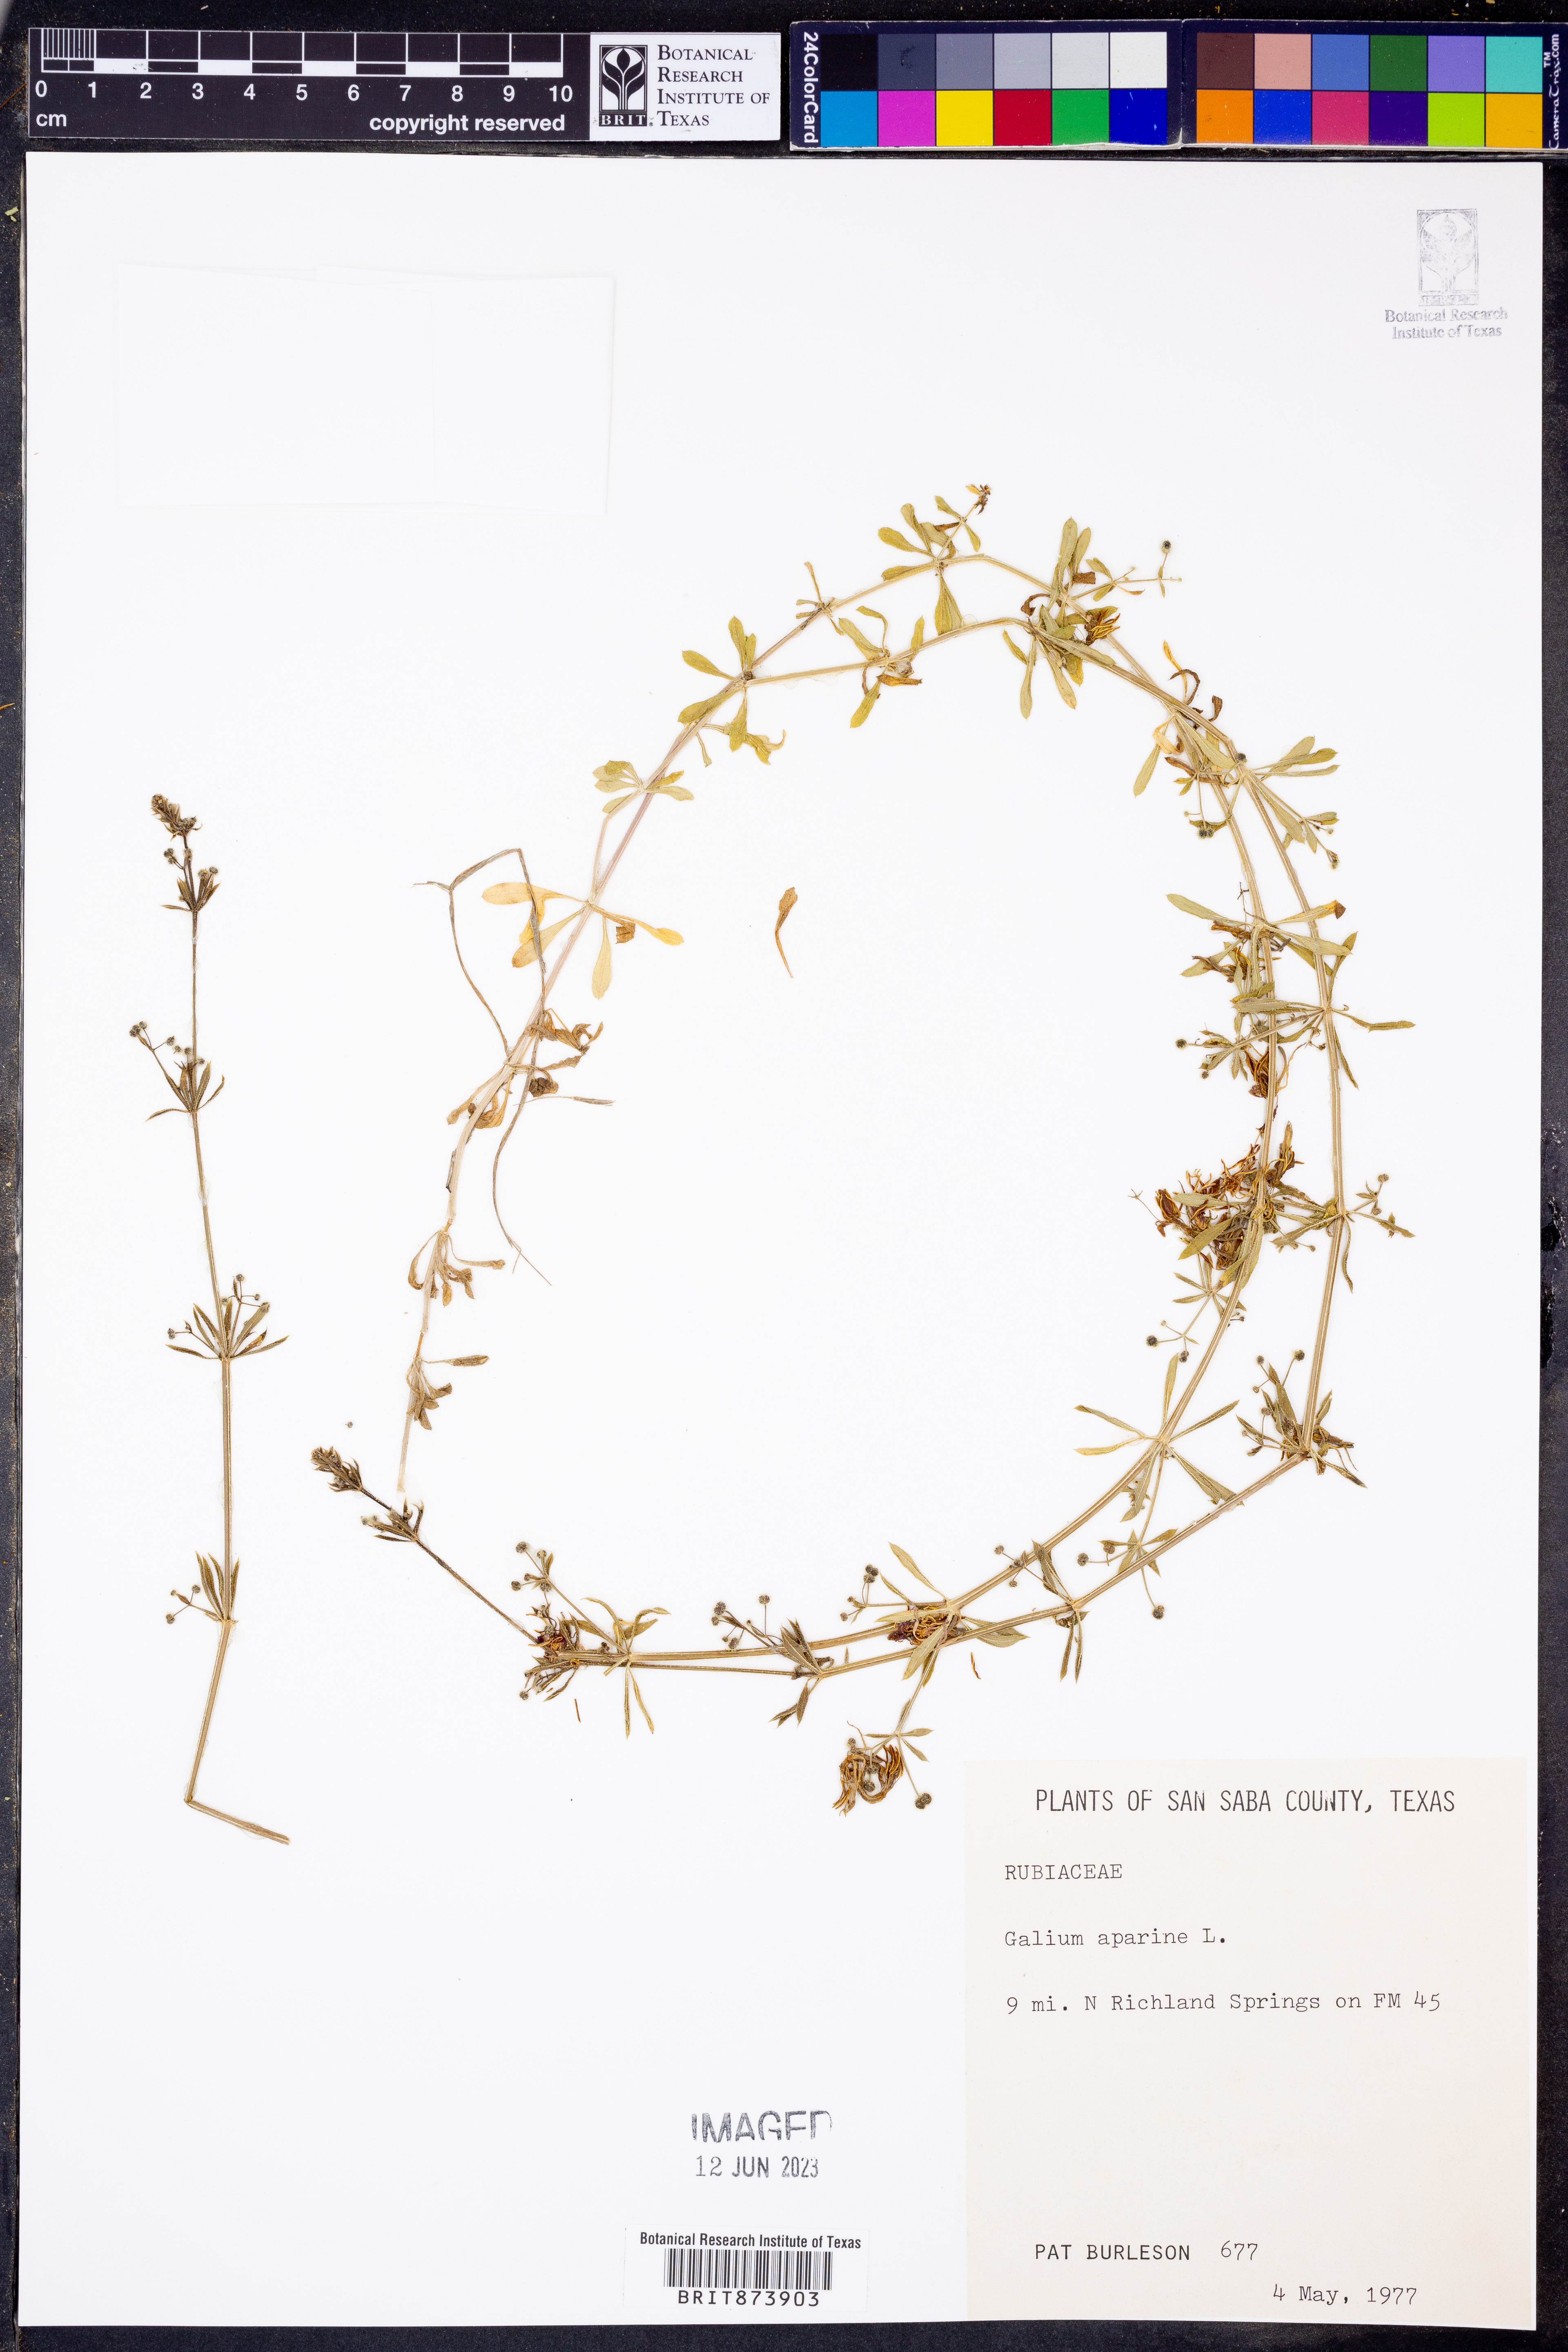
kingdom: Plantae
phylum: Tracheophyta
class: Magnoliopsida
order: Gentianales
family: Rubiaceae
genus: Galium
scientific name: Galium aparine
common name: Cleavers
